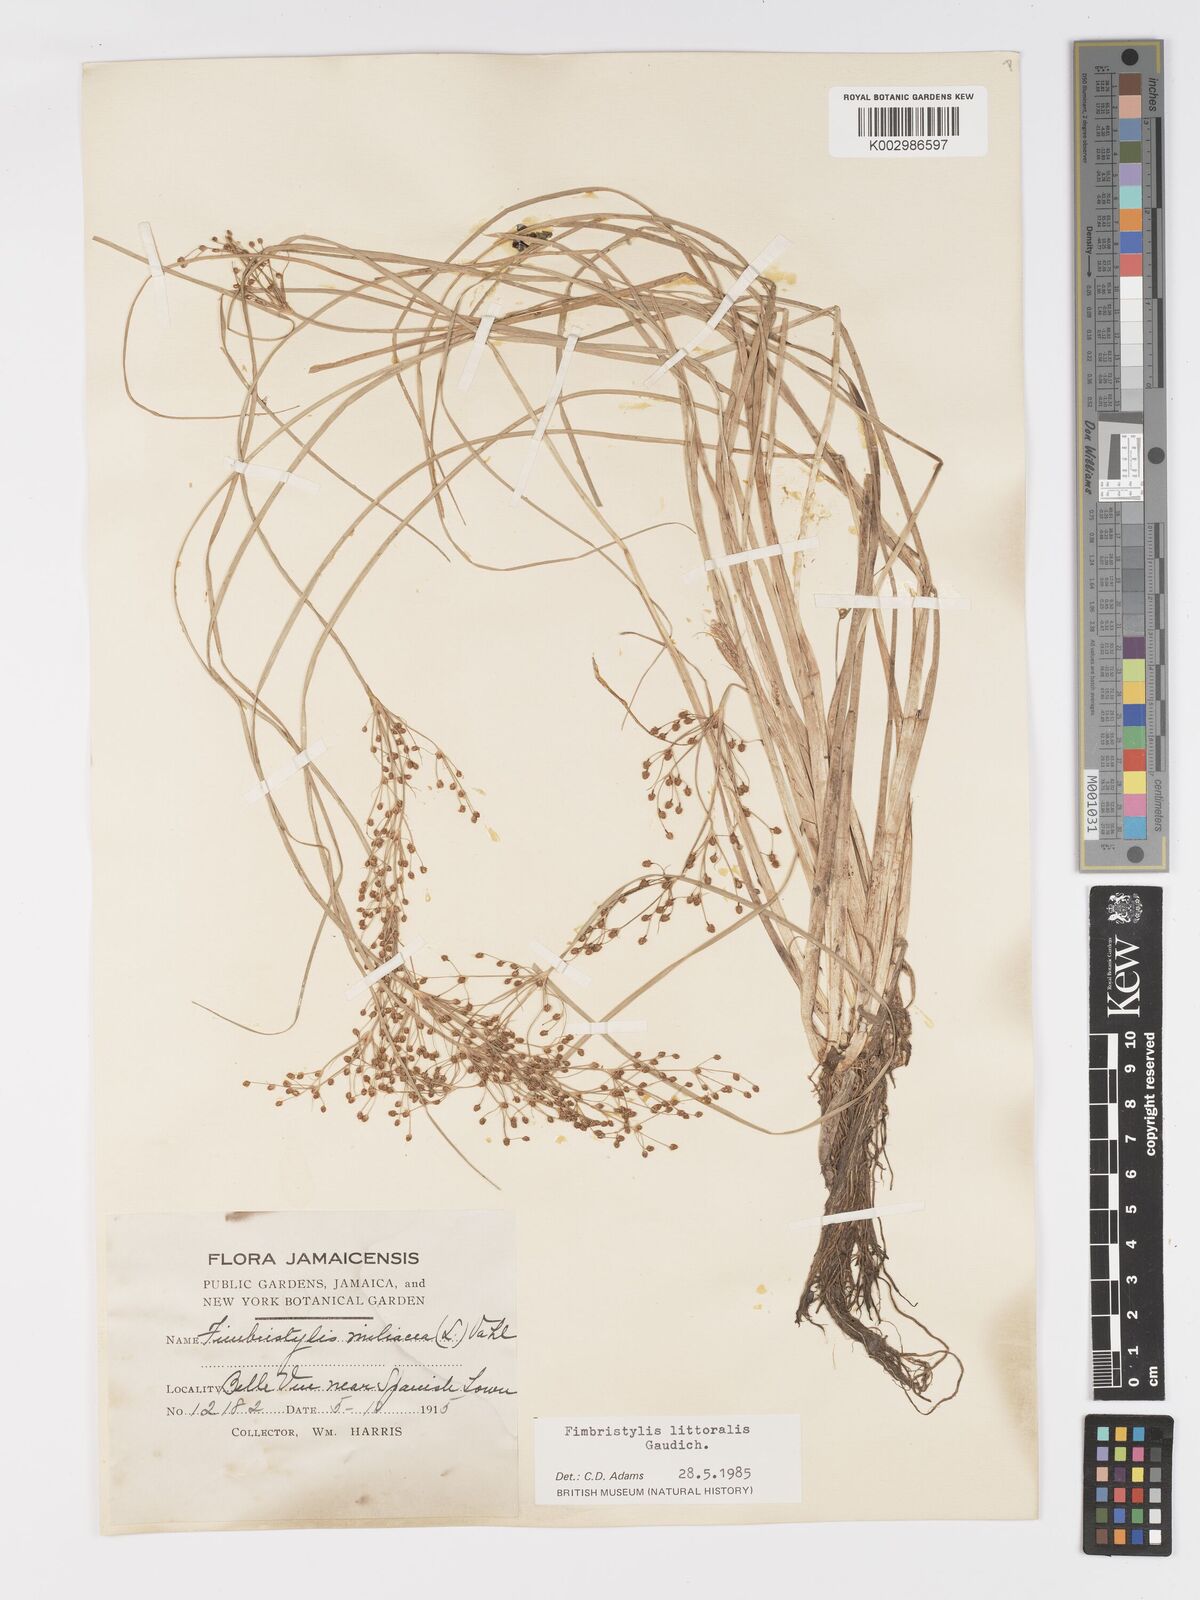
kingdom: Plantae
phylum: Tracheophyta
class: Liliopsida
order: Poales
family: Cyperaceae
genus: Fimbristylis
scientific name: Fimbristylis littoralis
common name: Fimbry
